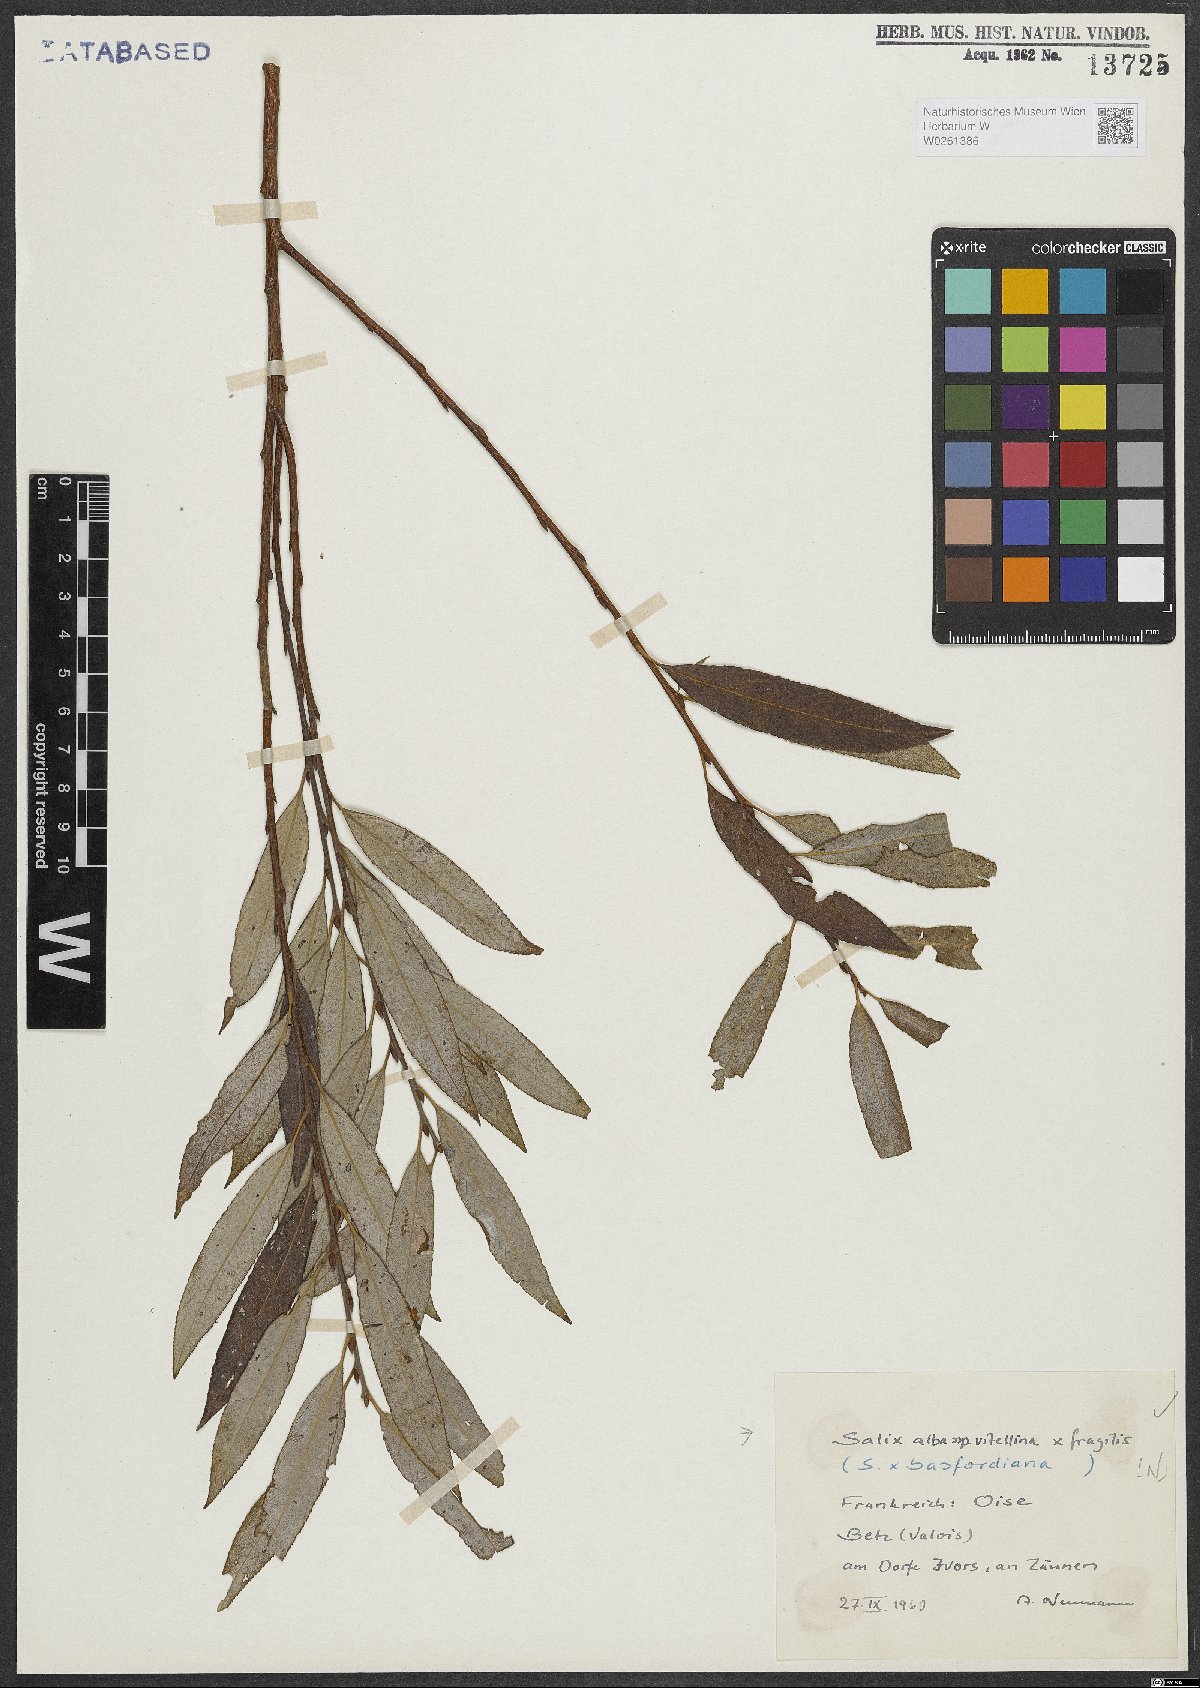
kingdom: Plantae
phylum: Tracheophyta
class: Magnoliopsida
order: Malpighiales
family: Salicaceae
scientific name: Salicaceae
